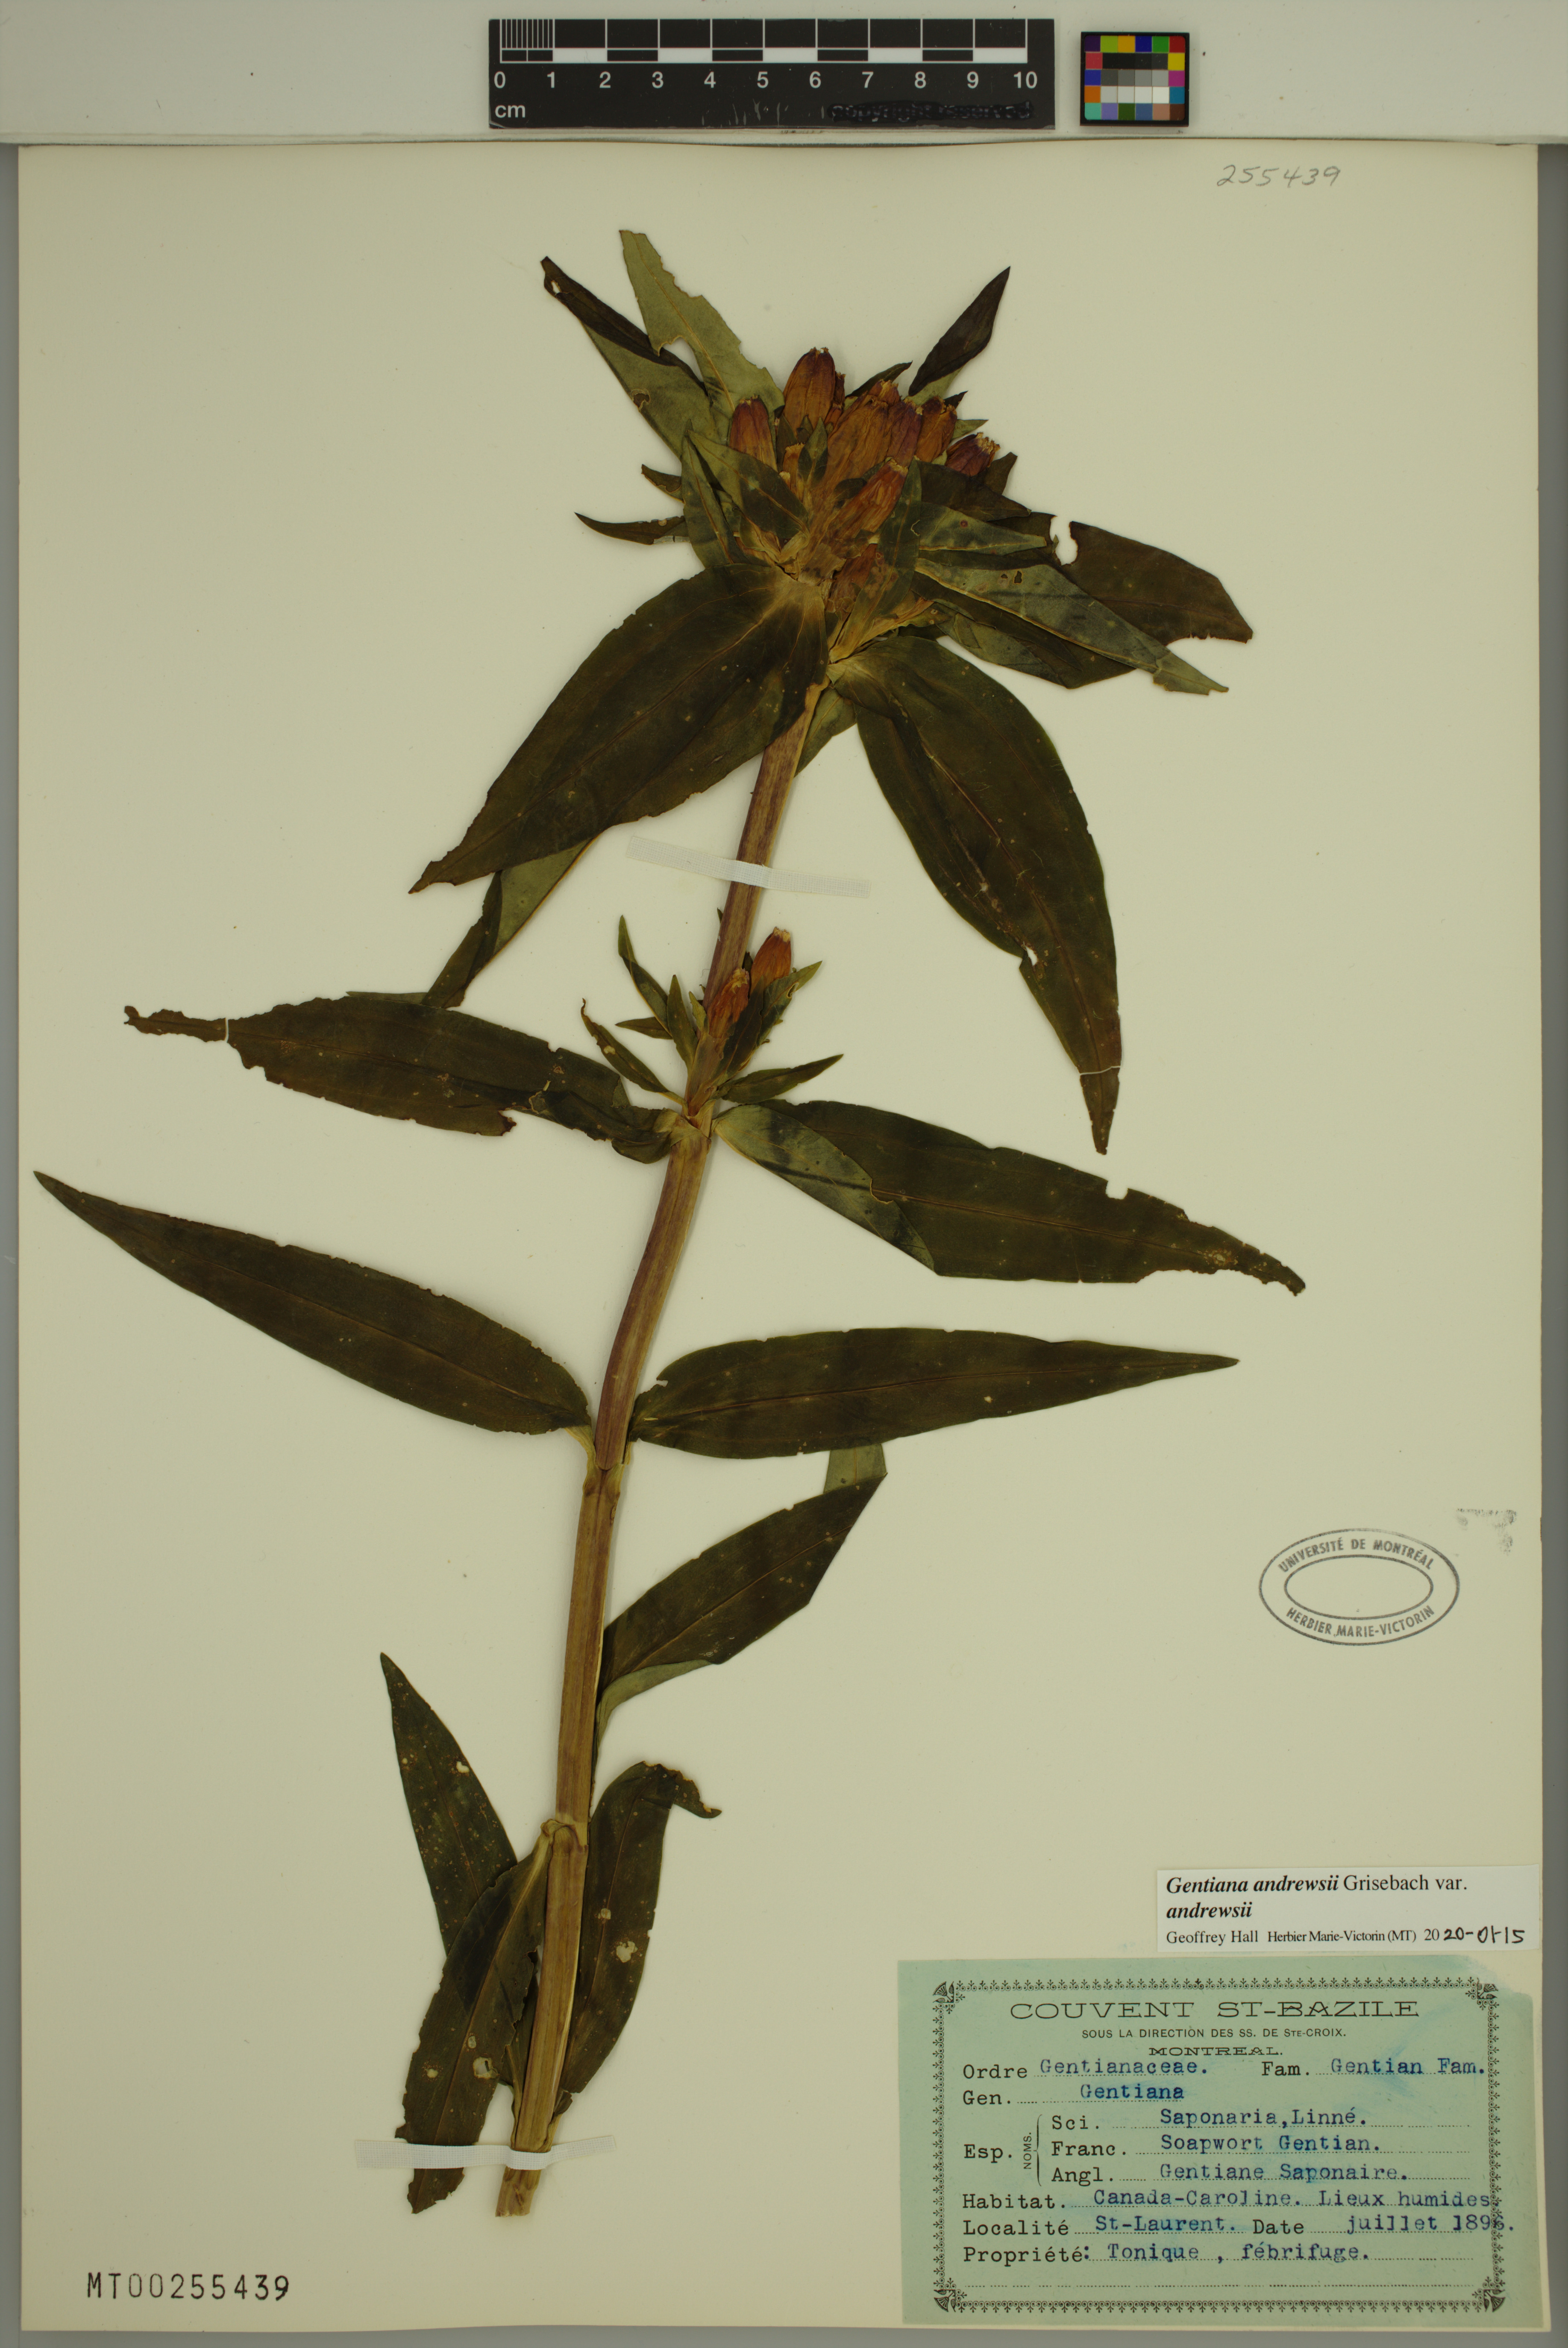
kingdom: Plantae
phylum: Tracheophyta
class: Magnoliopsida
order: Gentianales
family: Gentianaceae
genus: Gentiana
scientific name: Gentiana andrewsii
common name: Bottle gentian
